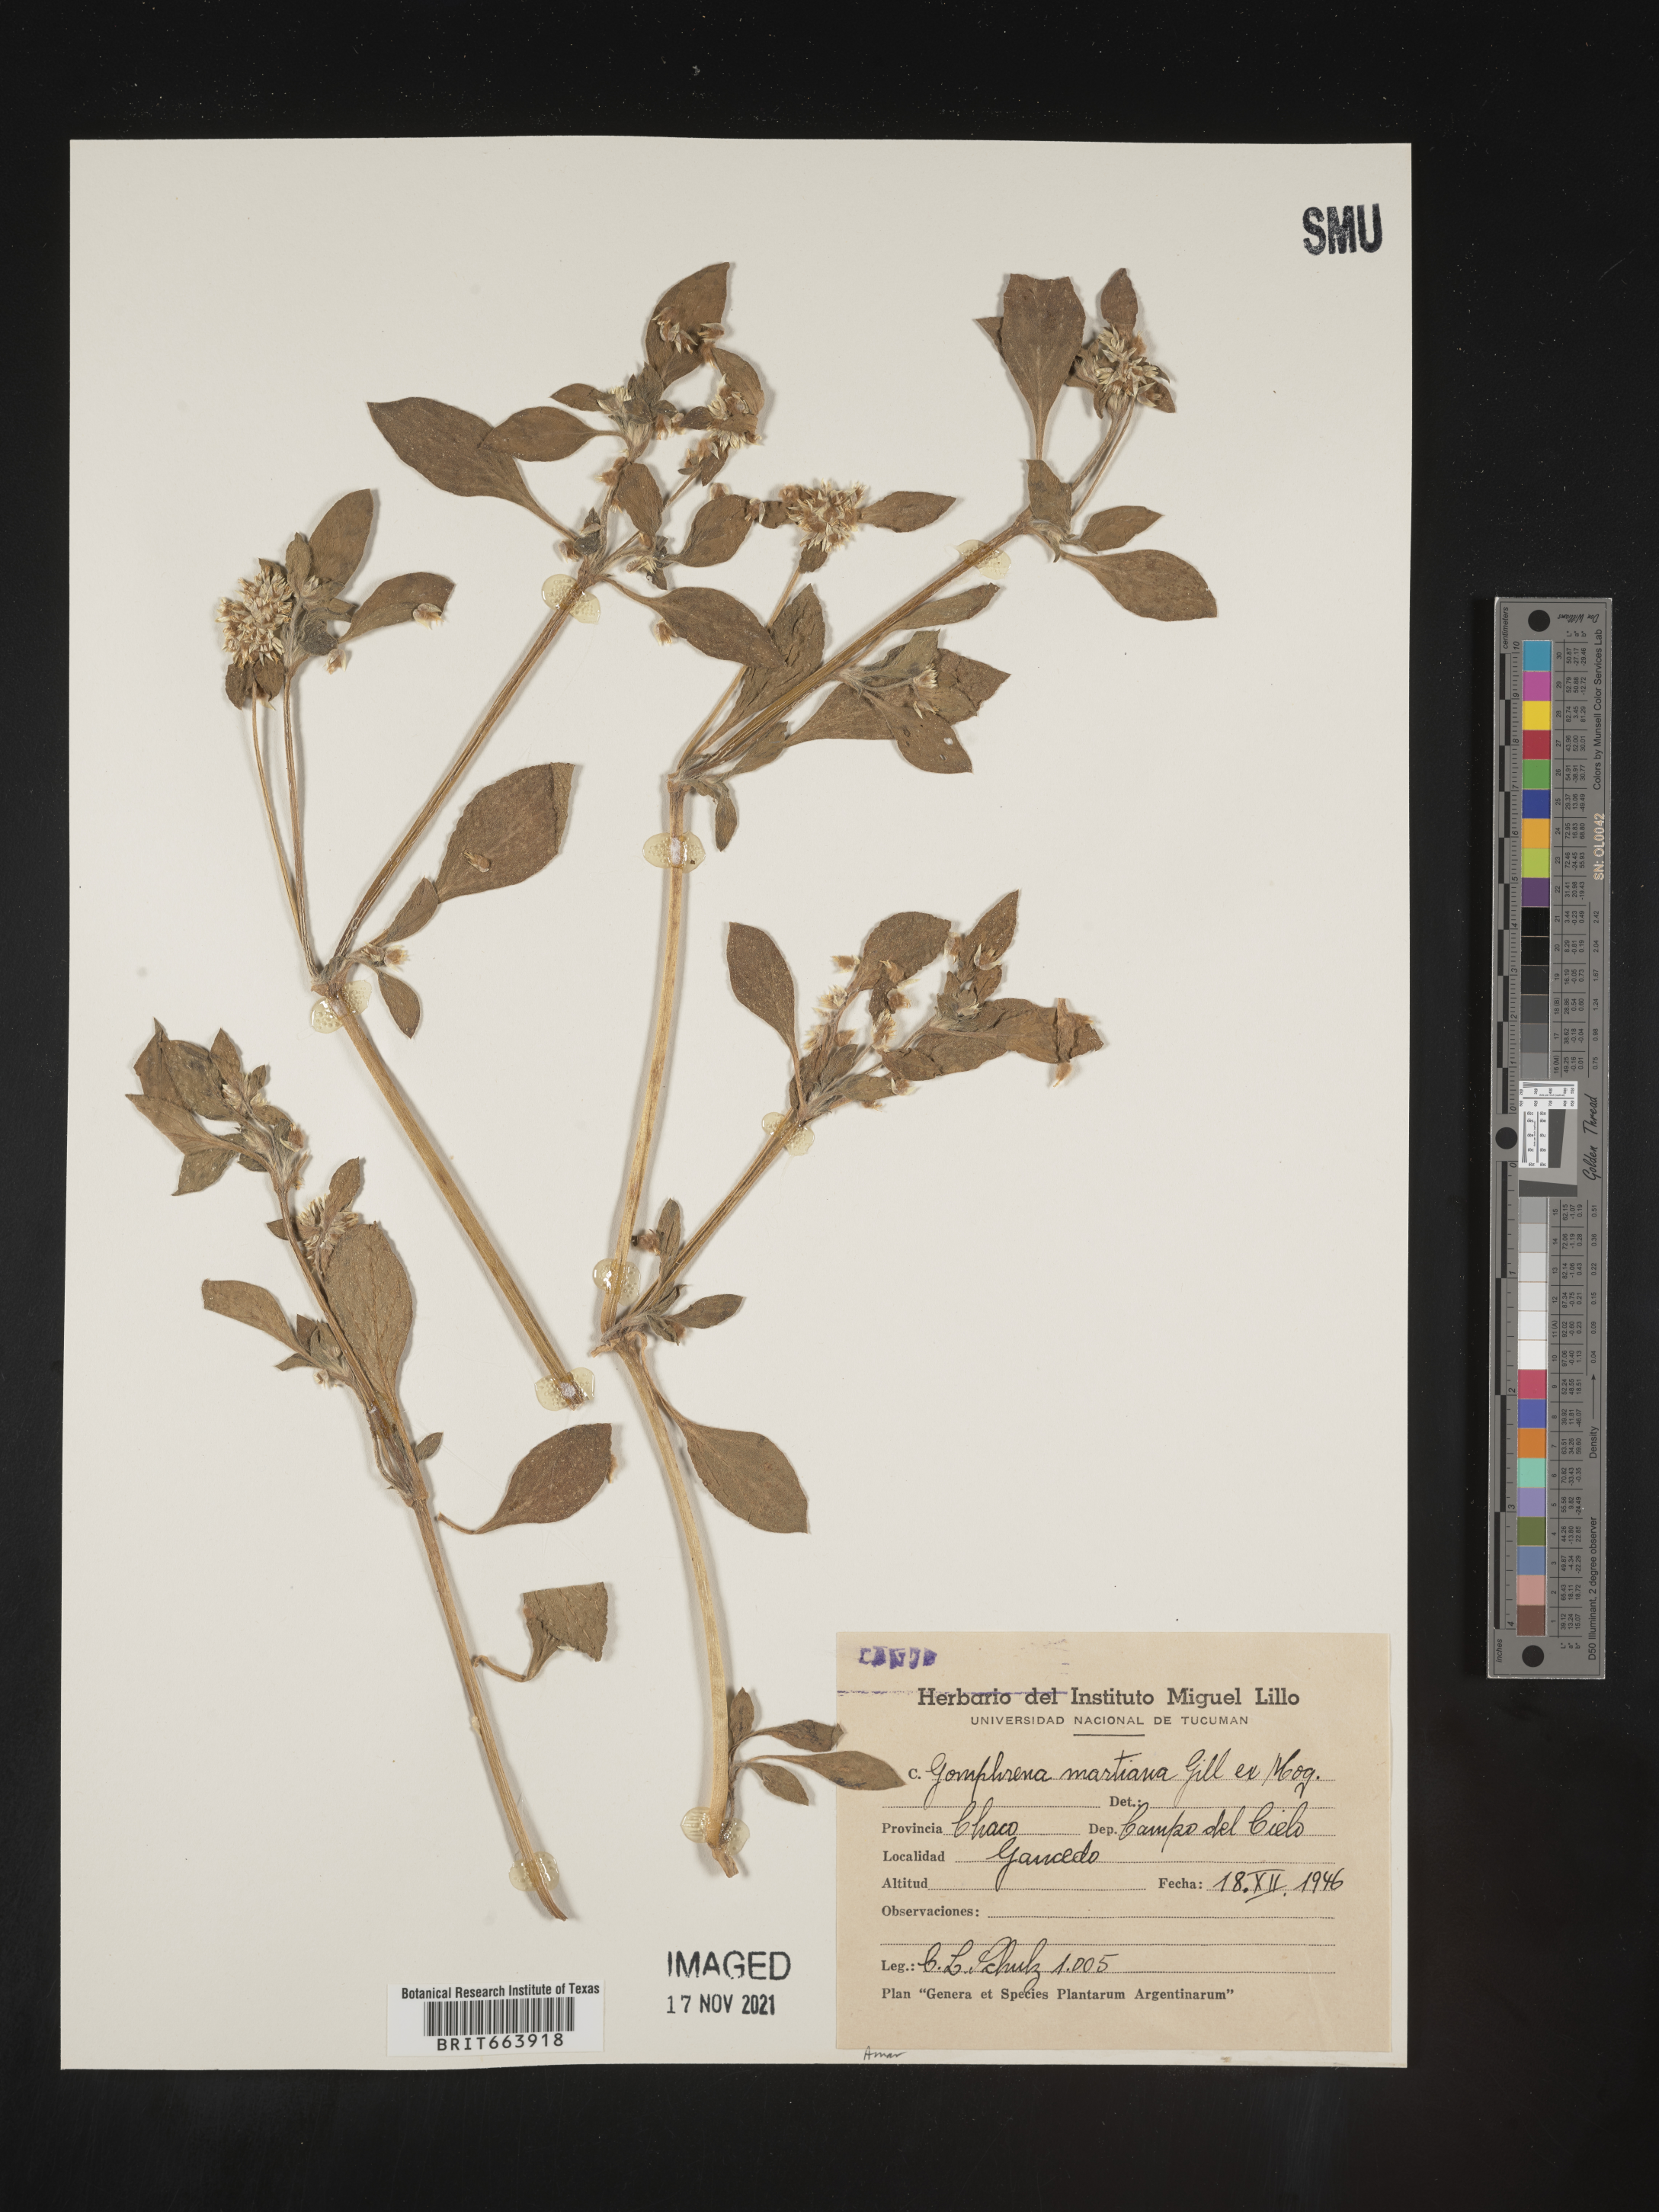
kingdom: Plantae
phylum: Tracheophyta
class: Magnoliopsida
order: Caryophyllales
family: Amaranthaceae
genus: Gomphrena
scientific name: Gomphrena
